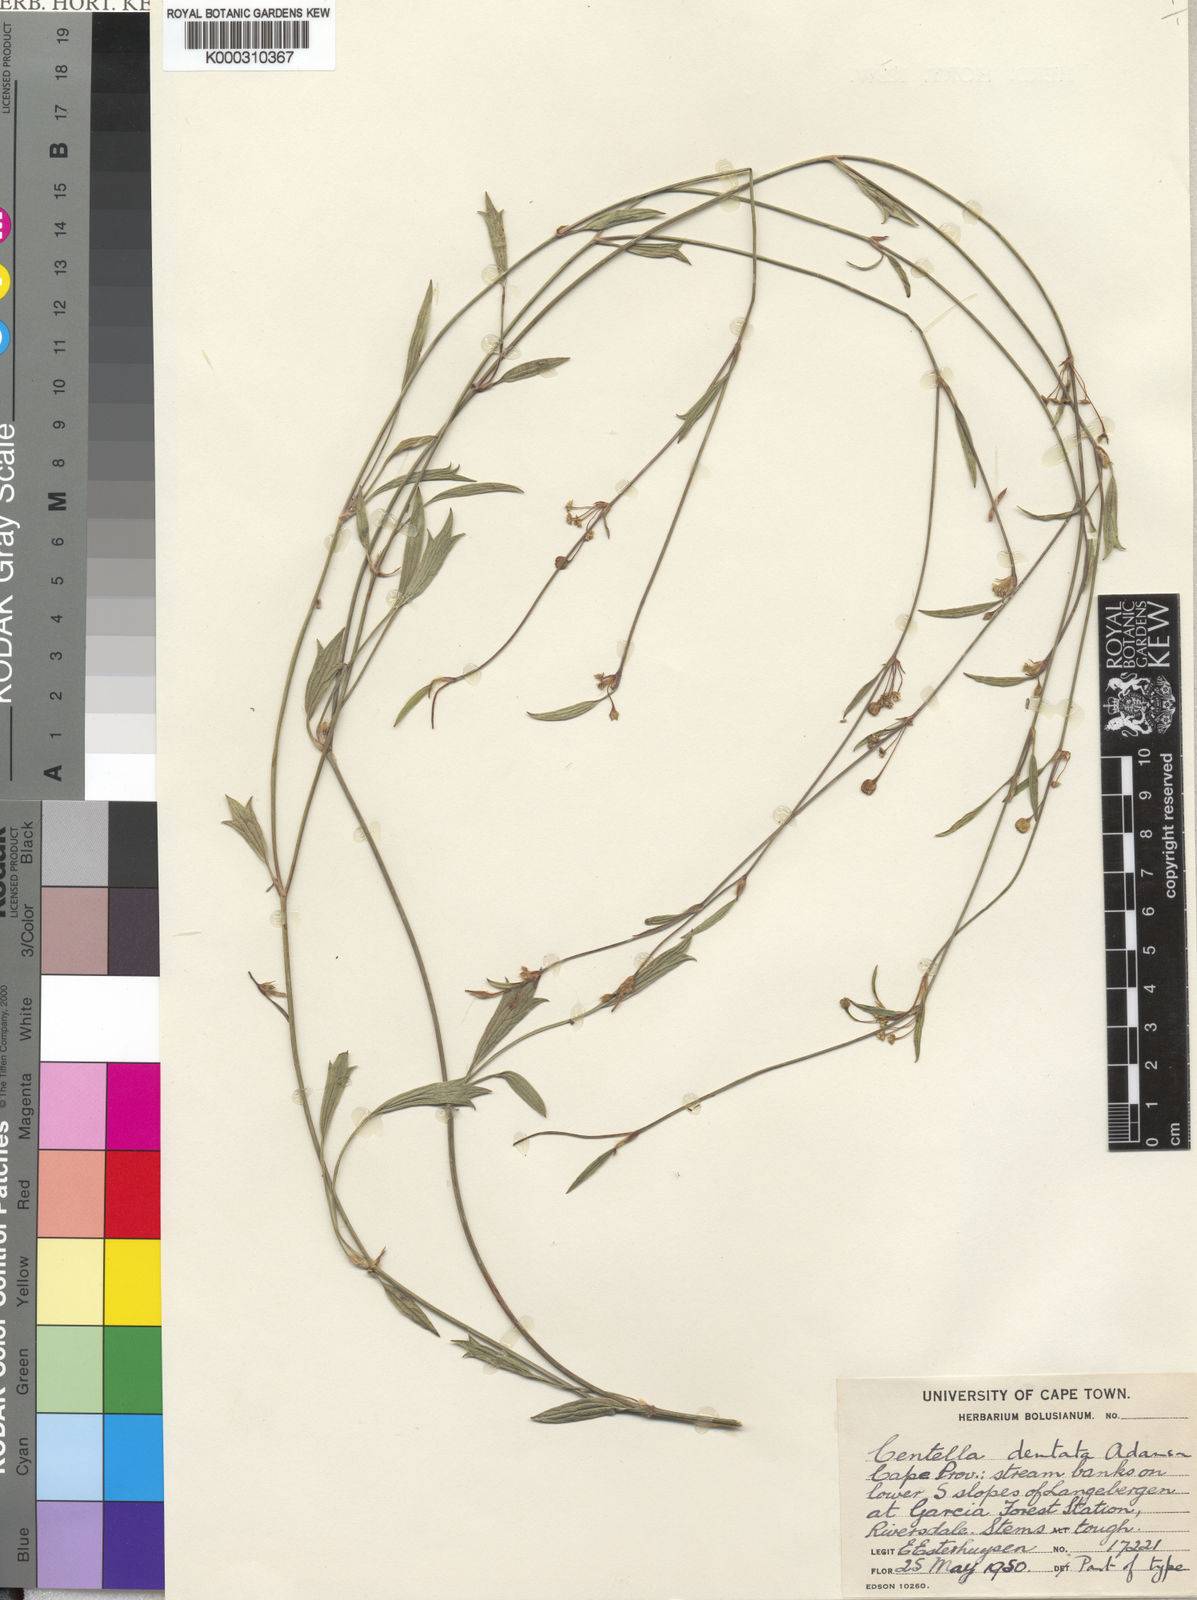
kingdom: Plantae
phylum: Tracheophyta
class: Magnoliopsida
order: Apiales
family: Apiaceae
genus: Centella
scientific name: Centella dentata
